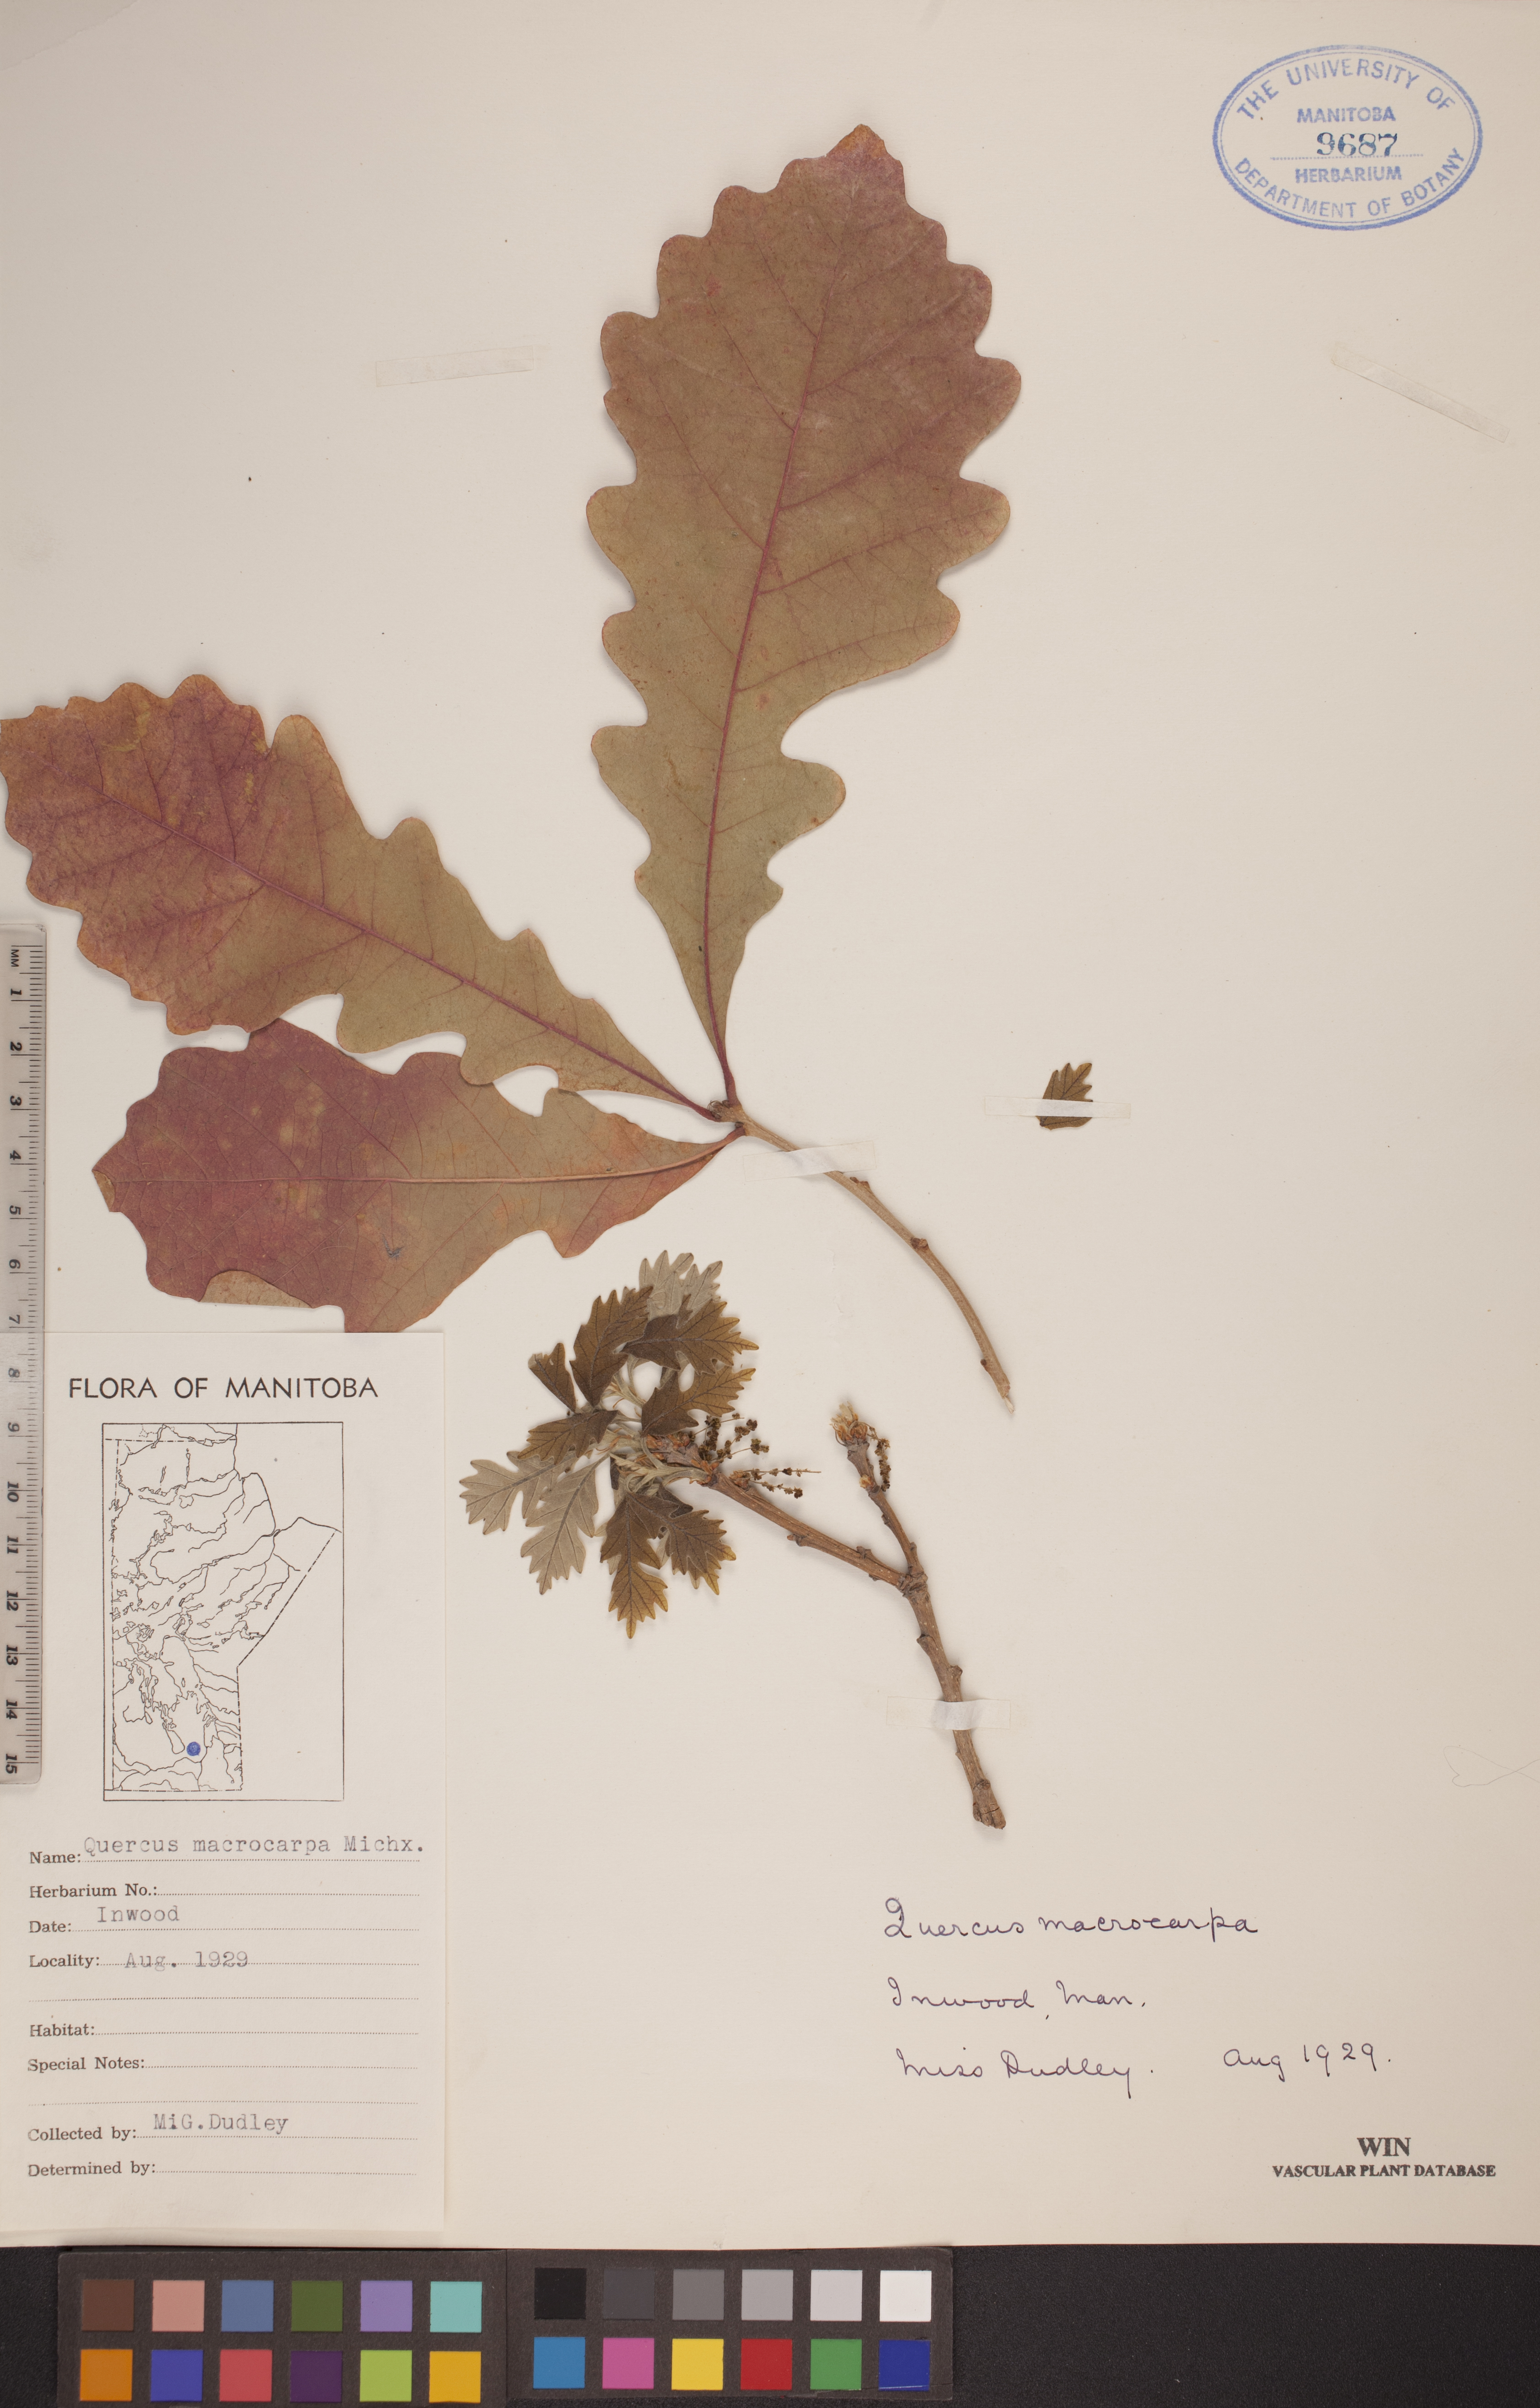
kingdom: Plantae
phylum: Tracheophyta
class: Magnoliopsida
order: Fagales
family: Fagaceae
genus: Quercus
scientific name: Quercus macrocarpa
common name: Bur oak
